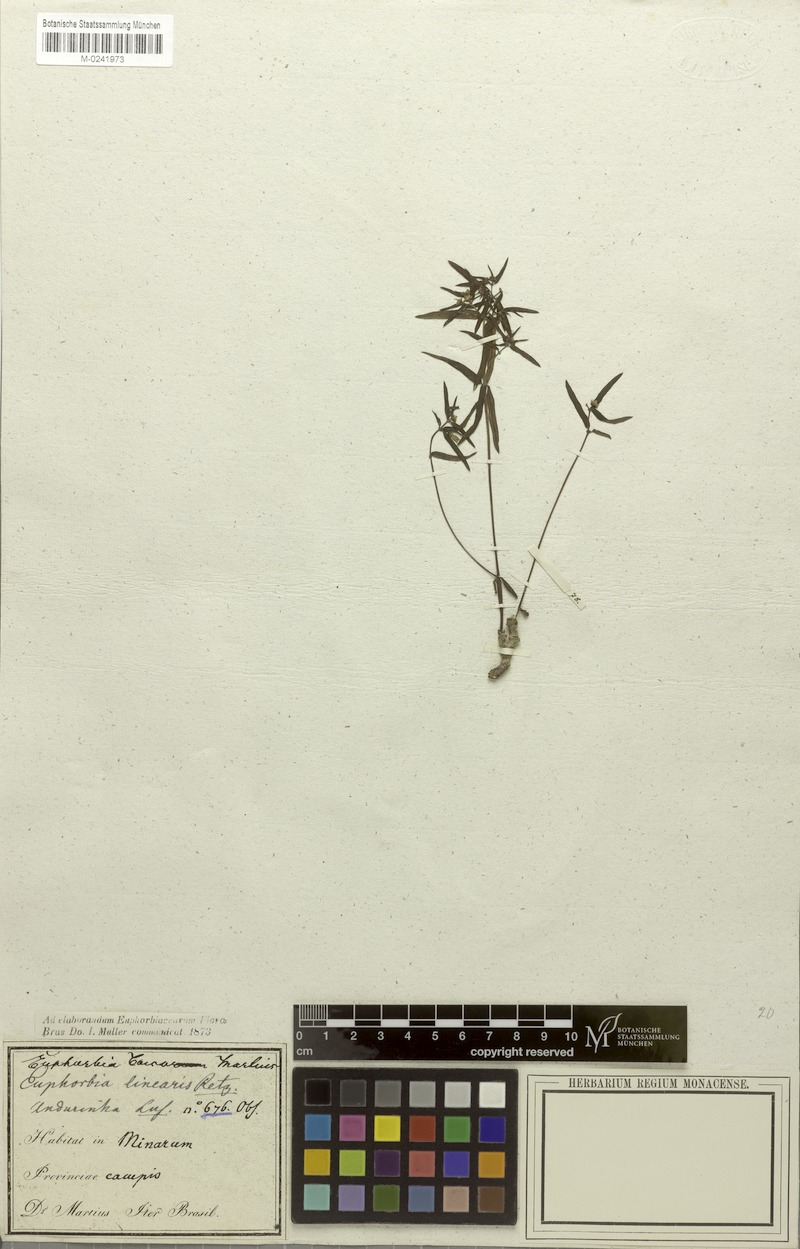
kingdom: Plantae
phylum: Tracheophyta
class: Magnoliopsida
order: Malpighiales
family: Euphorbiaceae
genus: Euphorbia
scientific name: Euphorbia potentilloides
